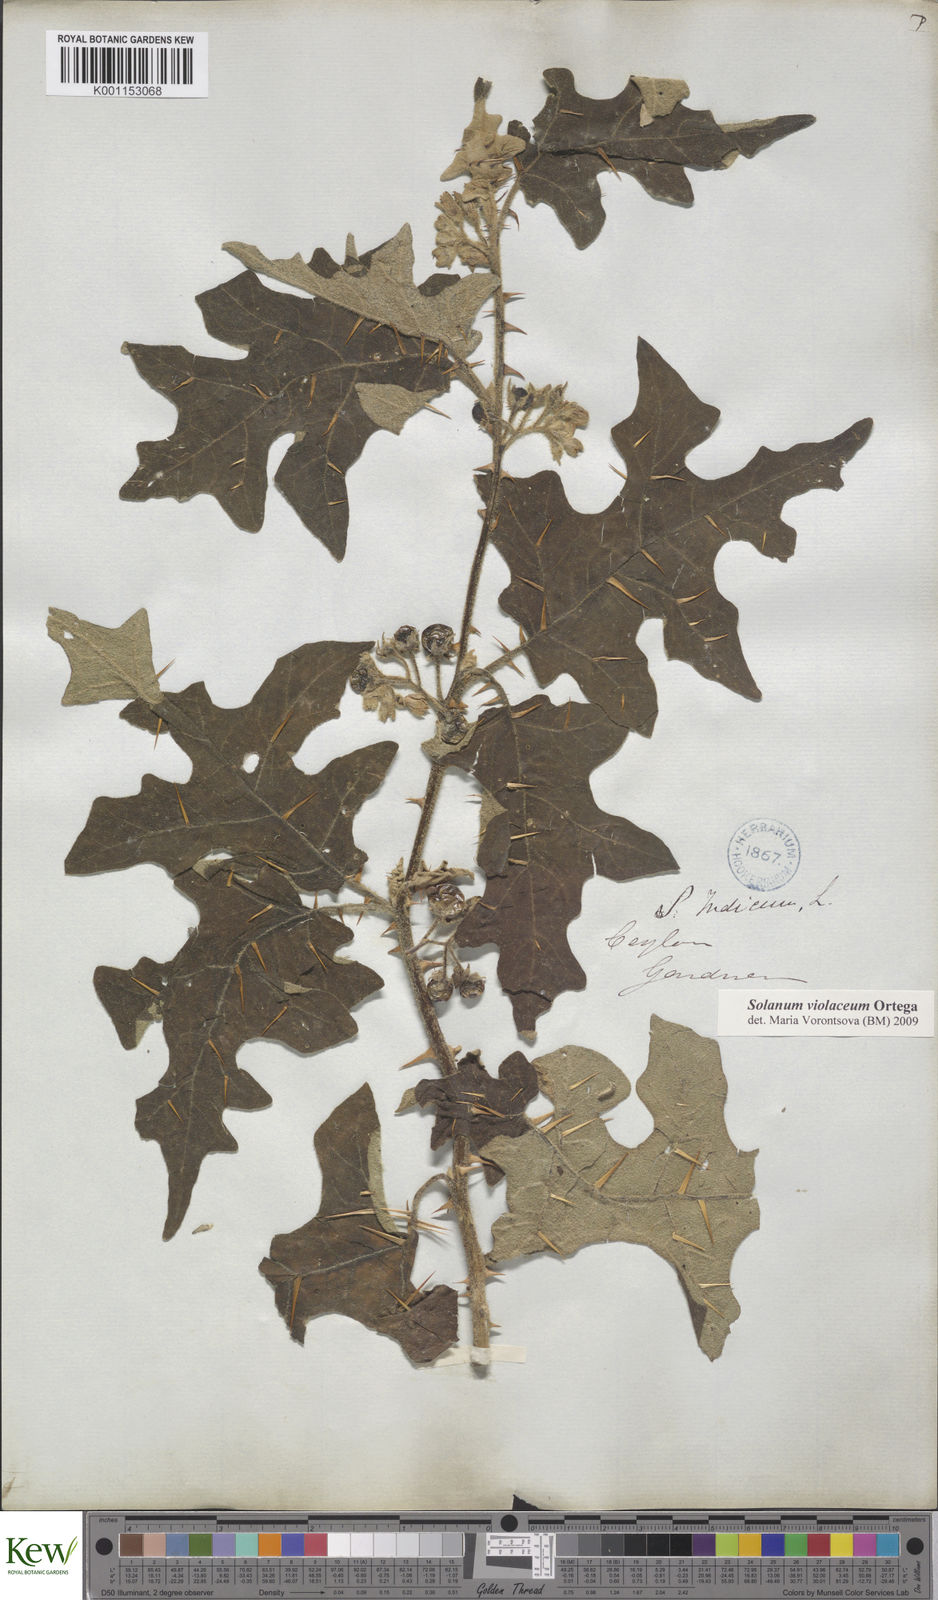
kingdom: Plantae
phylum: Tracheophyta
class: Magnoliopsida
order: Solanales
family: Solanaceae
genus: Solanum
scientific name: Solanum violaceum
